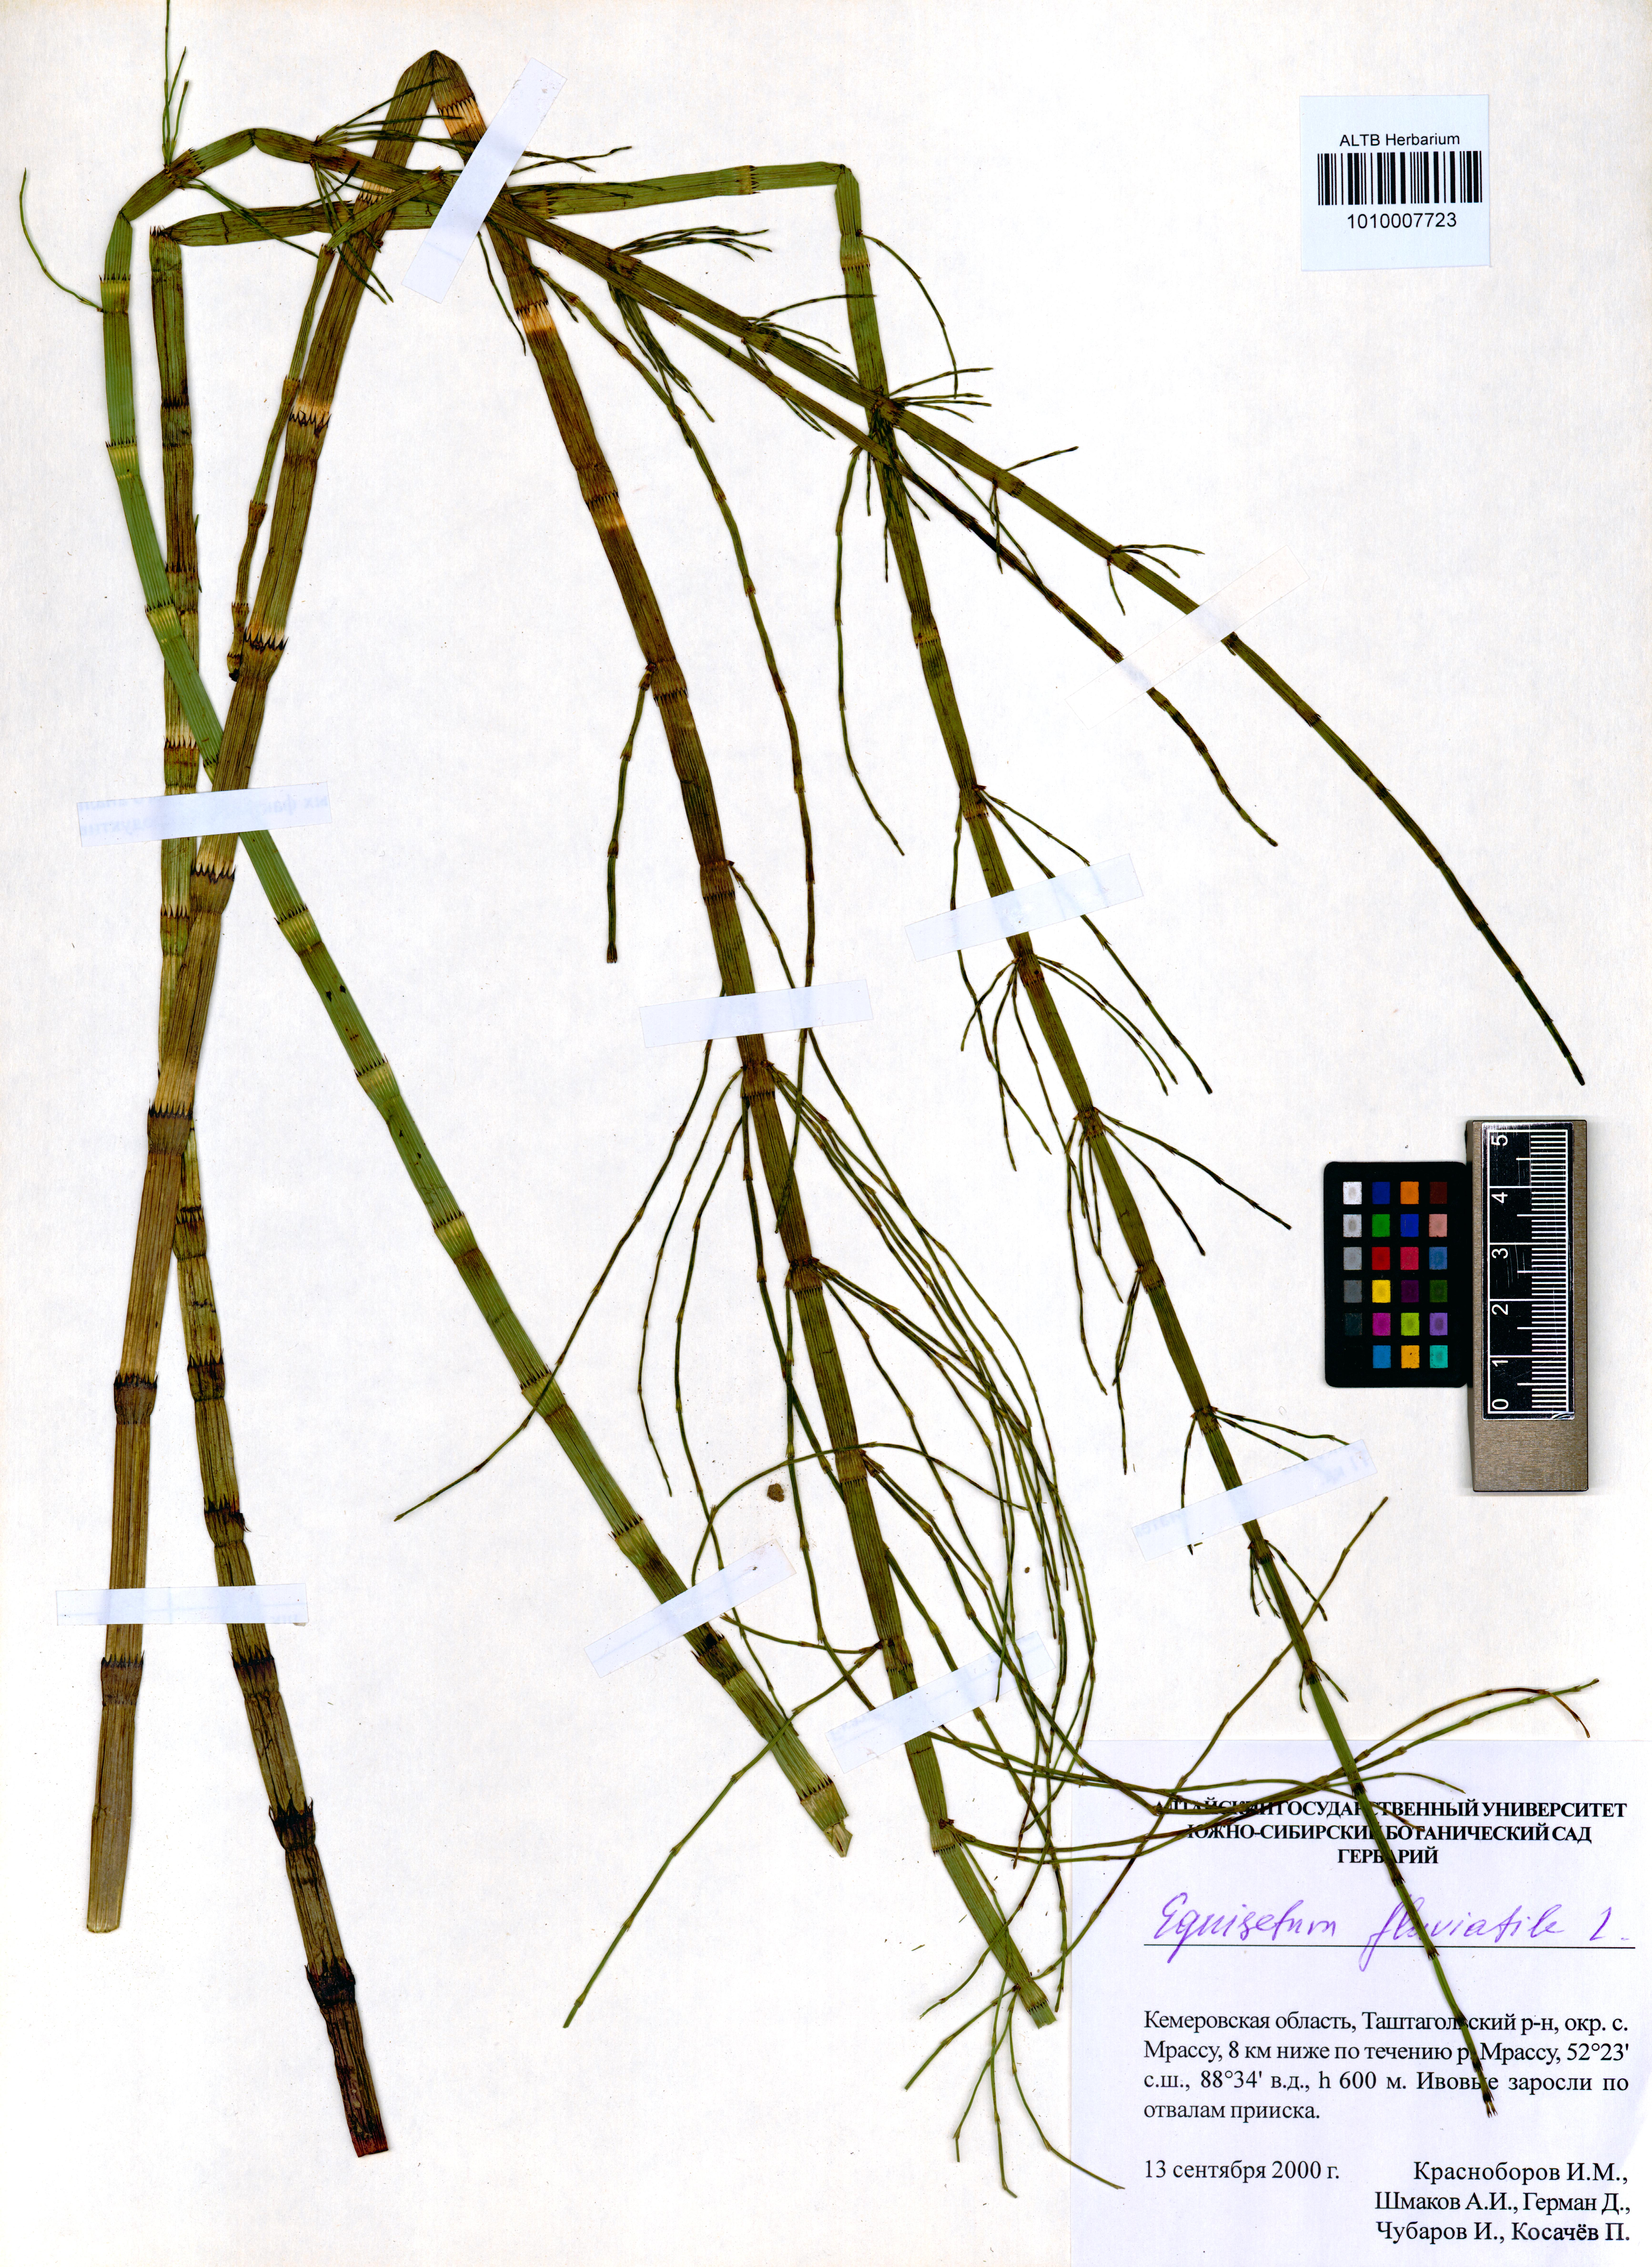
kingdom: Plantae
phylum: Tracheophyta
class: Polypodiopsida
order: Equisetales
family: Equisetaceae
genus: Equisetum
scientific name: Equisetum fluviatile
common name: Water horsetail
